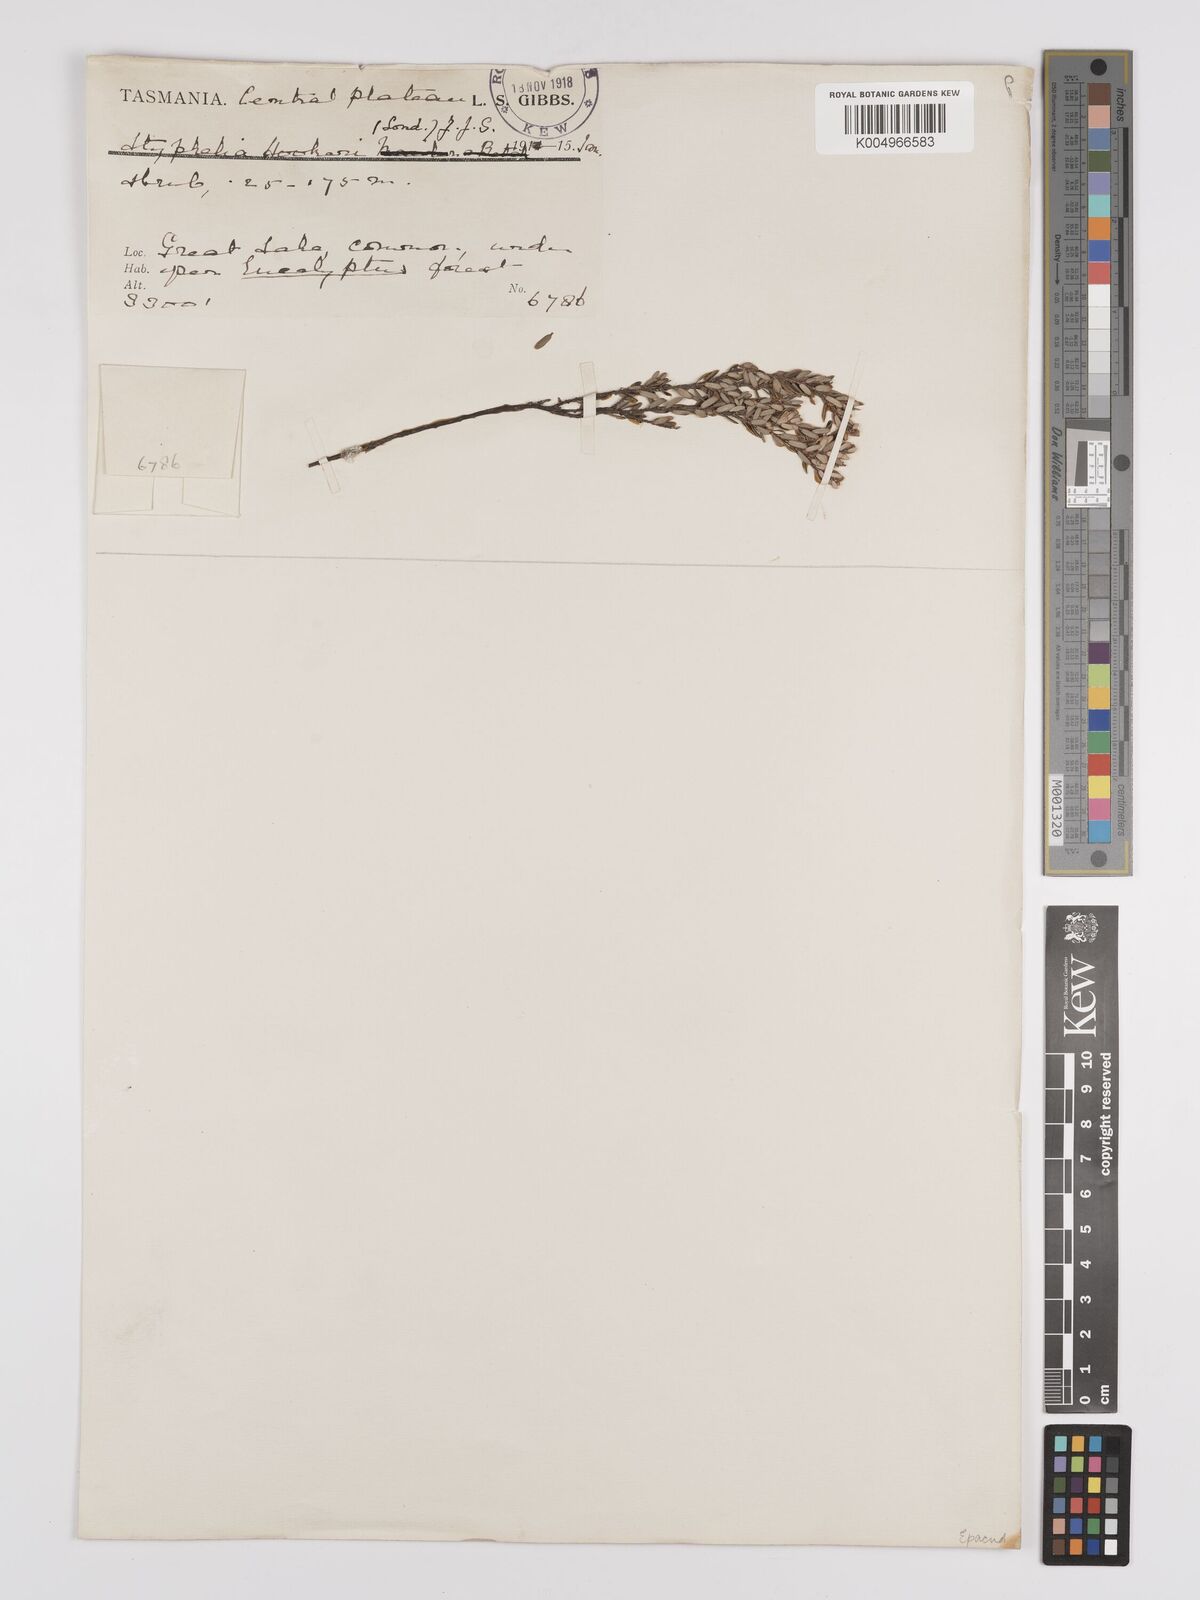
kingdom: Plantae
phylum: Tracheophyta
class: Magnoliopsida
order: Ericales
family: Ericaceae
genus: Acrothamnus
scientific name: Acrothamnus hookeri
